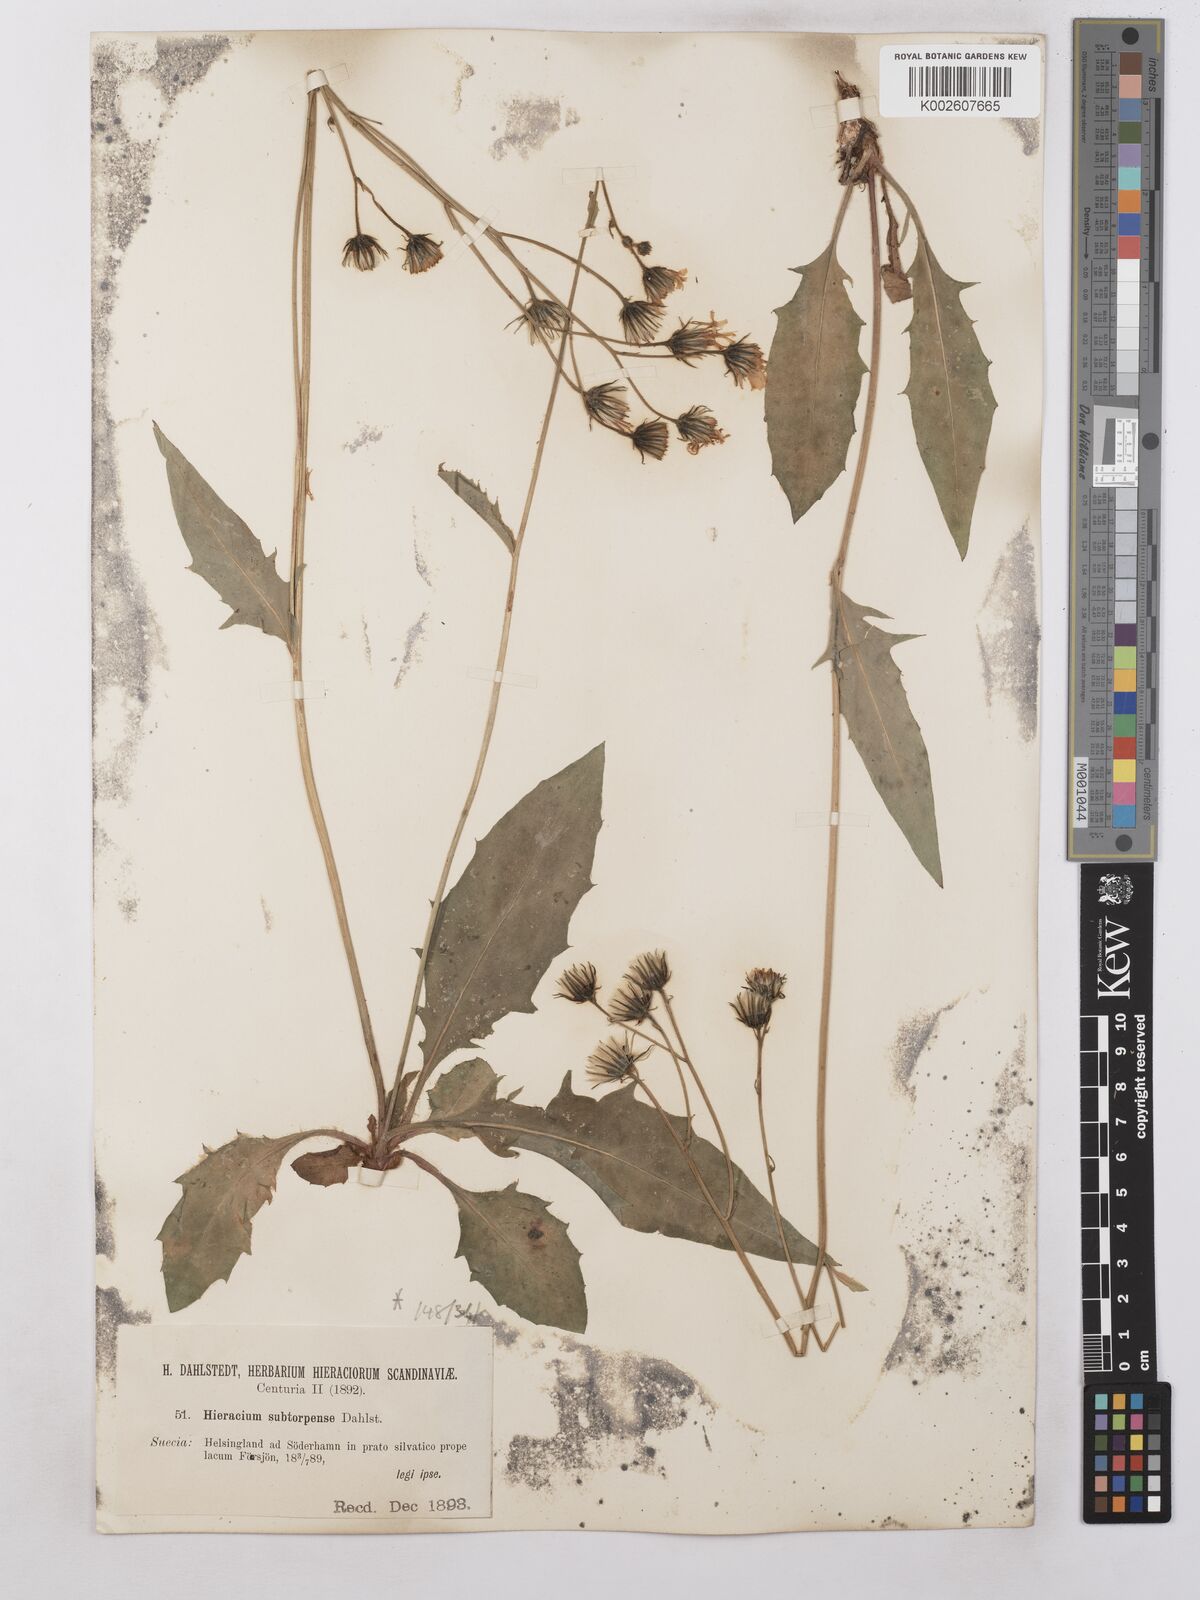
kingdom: Plantae
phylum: Tracheophyta
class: Magnoliopsida
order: Asterales
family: Asteraceae
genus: Hieracium
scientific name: Hieracium subramosum
